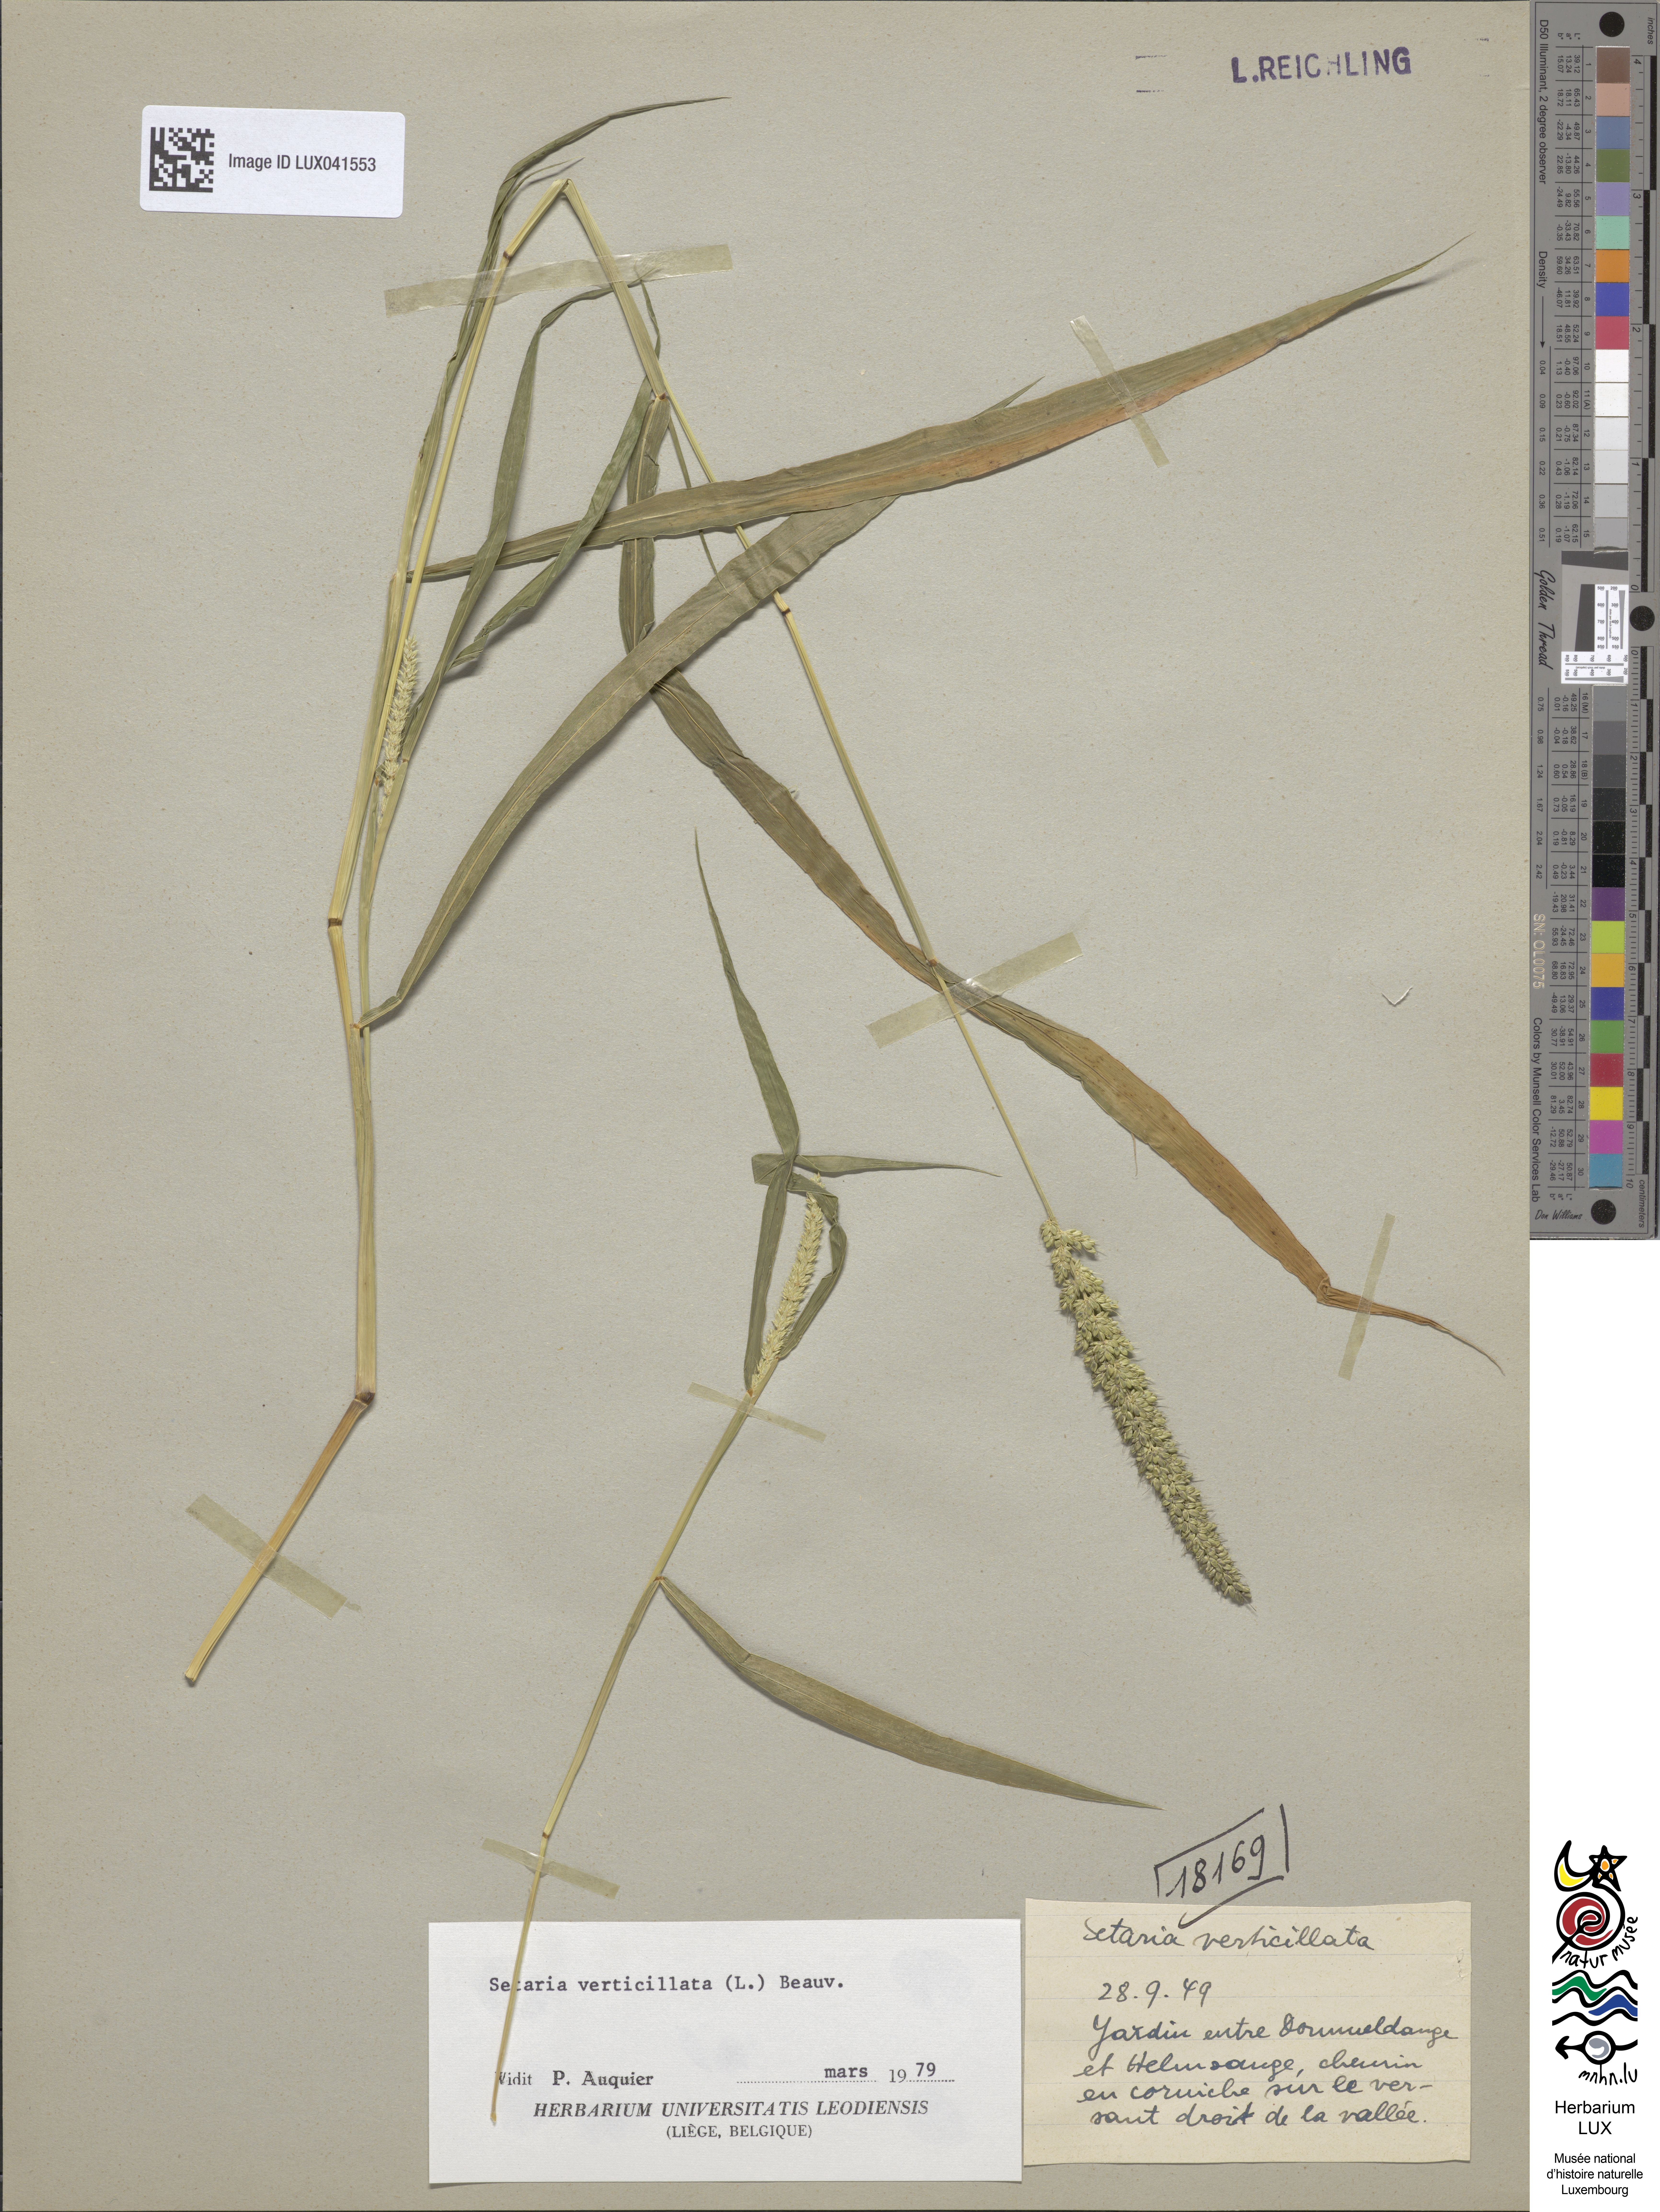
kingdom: Plantae
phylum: Tracheophyta
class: Liliopsida
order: Poales
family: Poaceae
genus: Setaria
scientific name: Setaria verticillata
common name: Hooked bristlegrass
